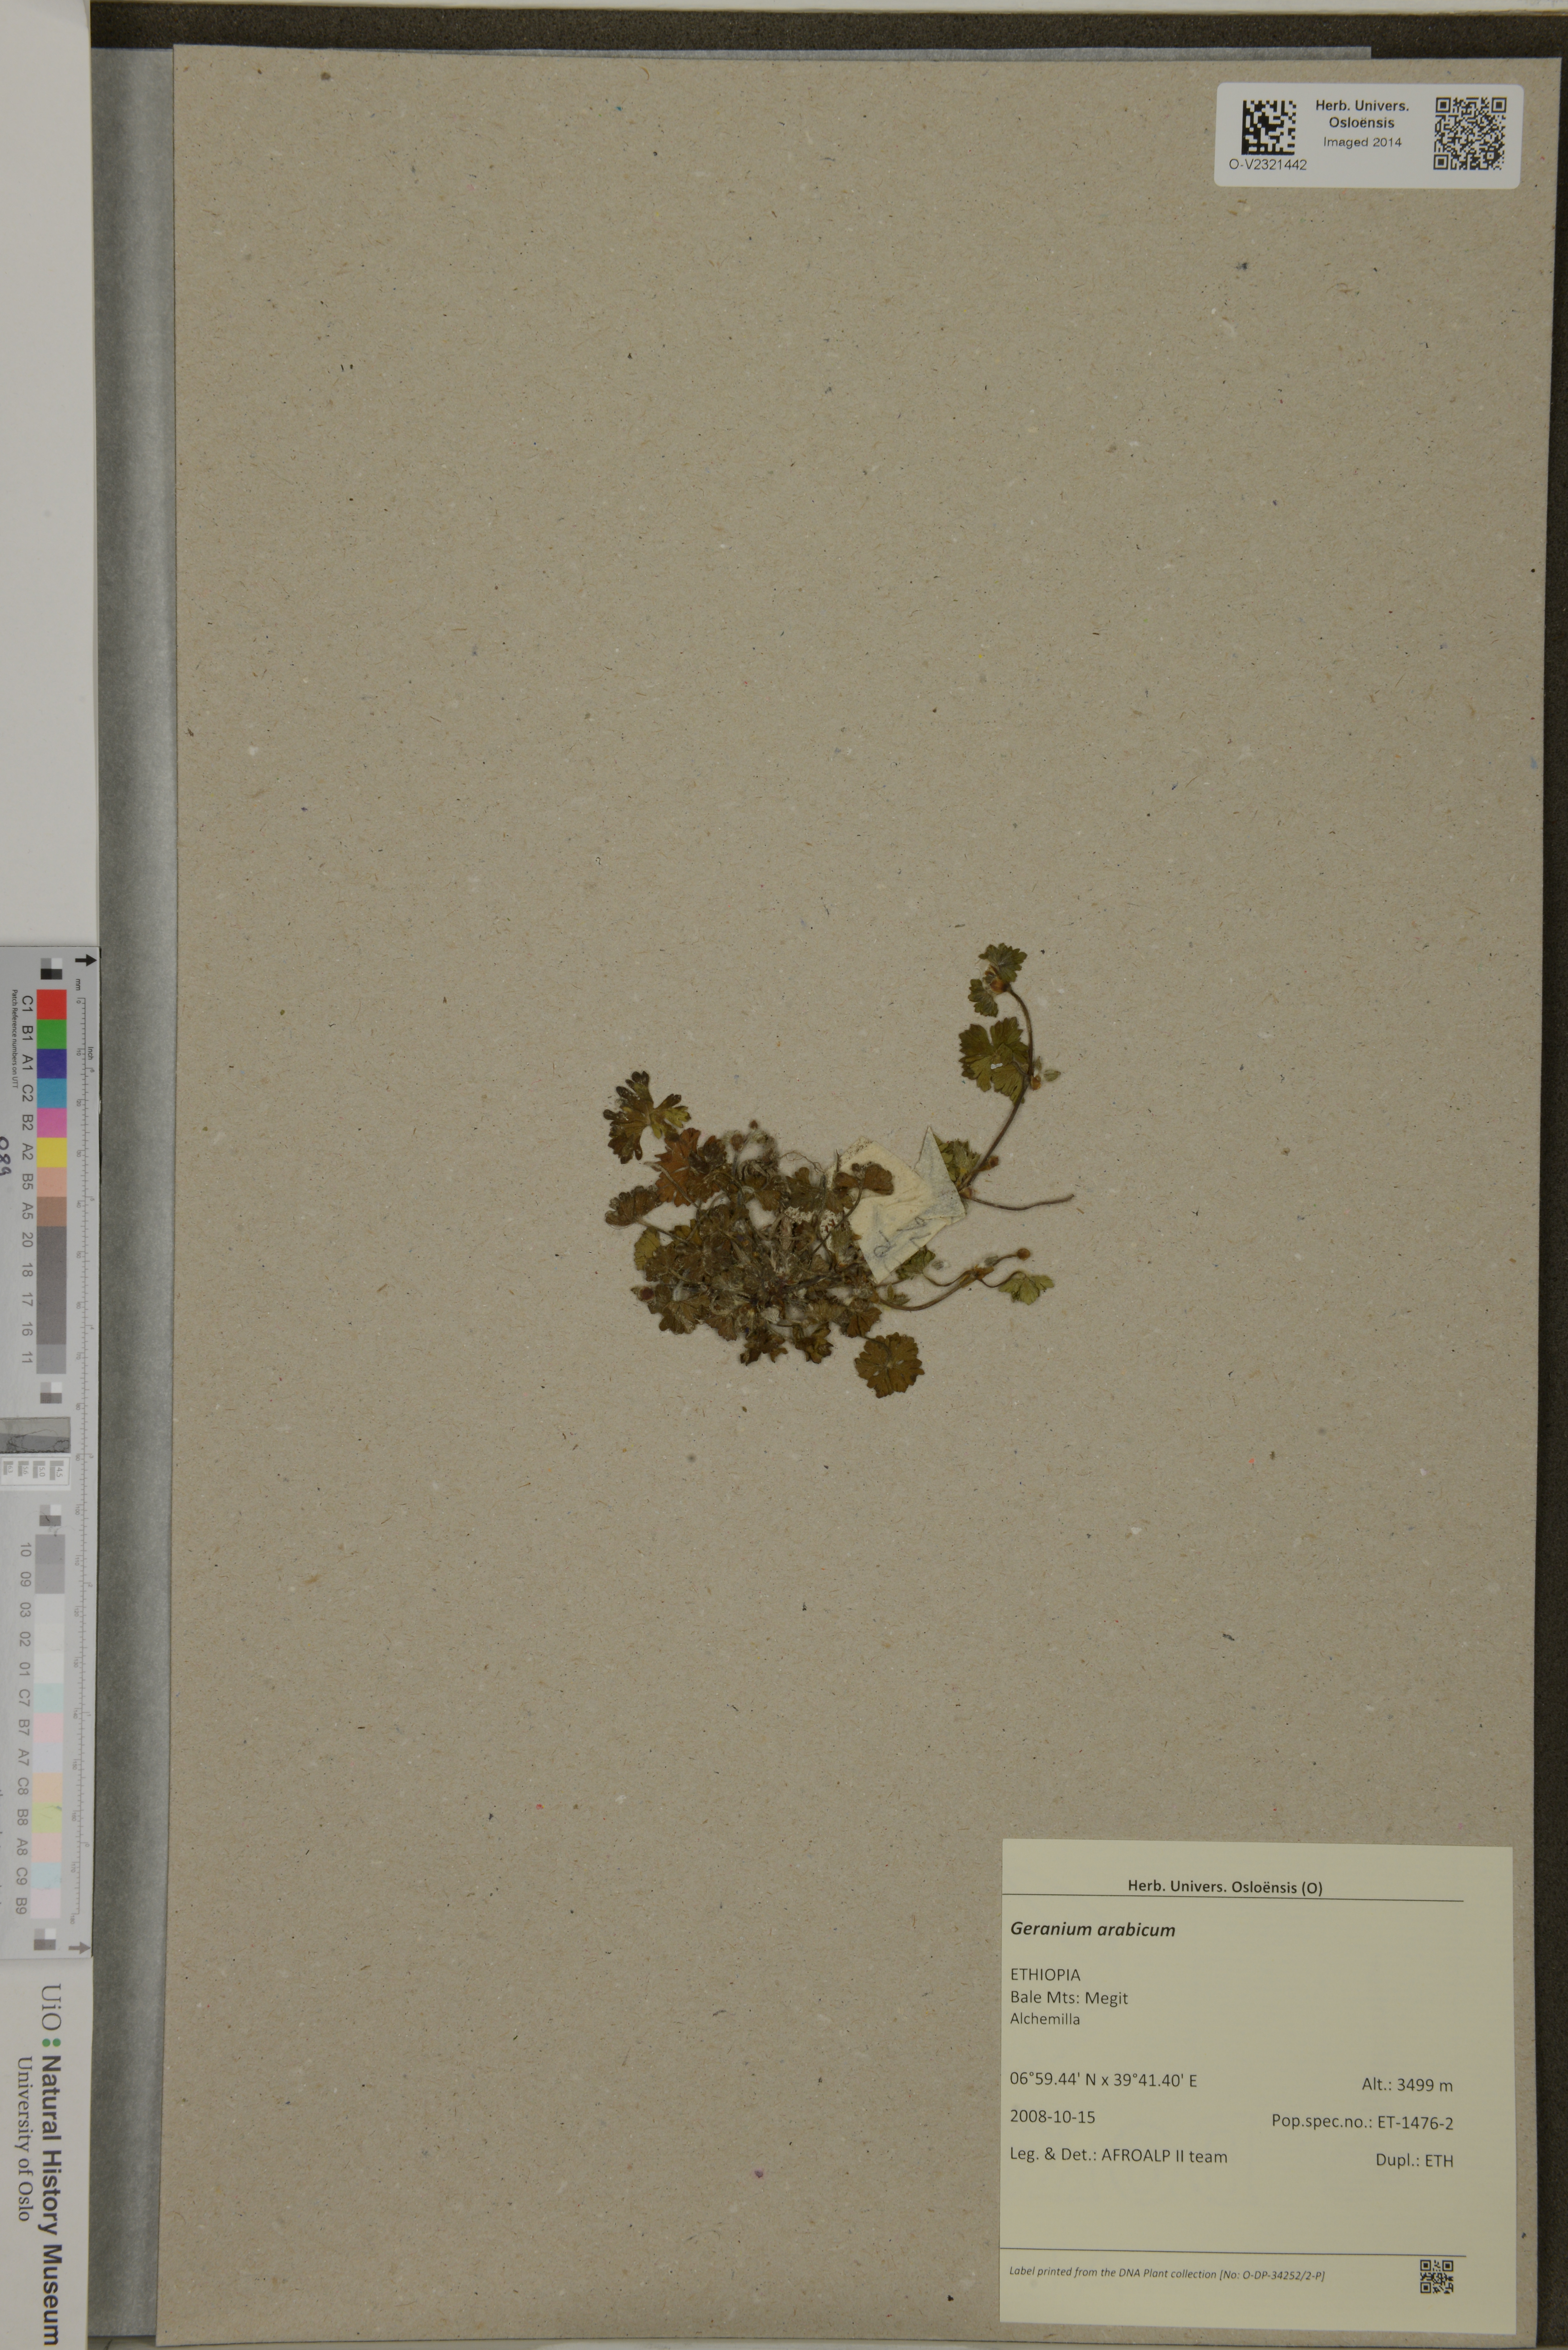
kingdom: Plantae
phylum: Tracheophyta
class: Magnoliopsida
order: Geraniales
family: Geraniaceae
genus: Geranium
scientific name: Geranium arabicum
